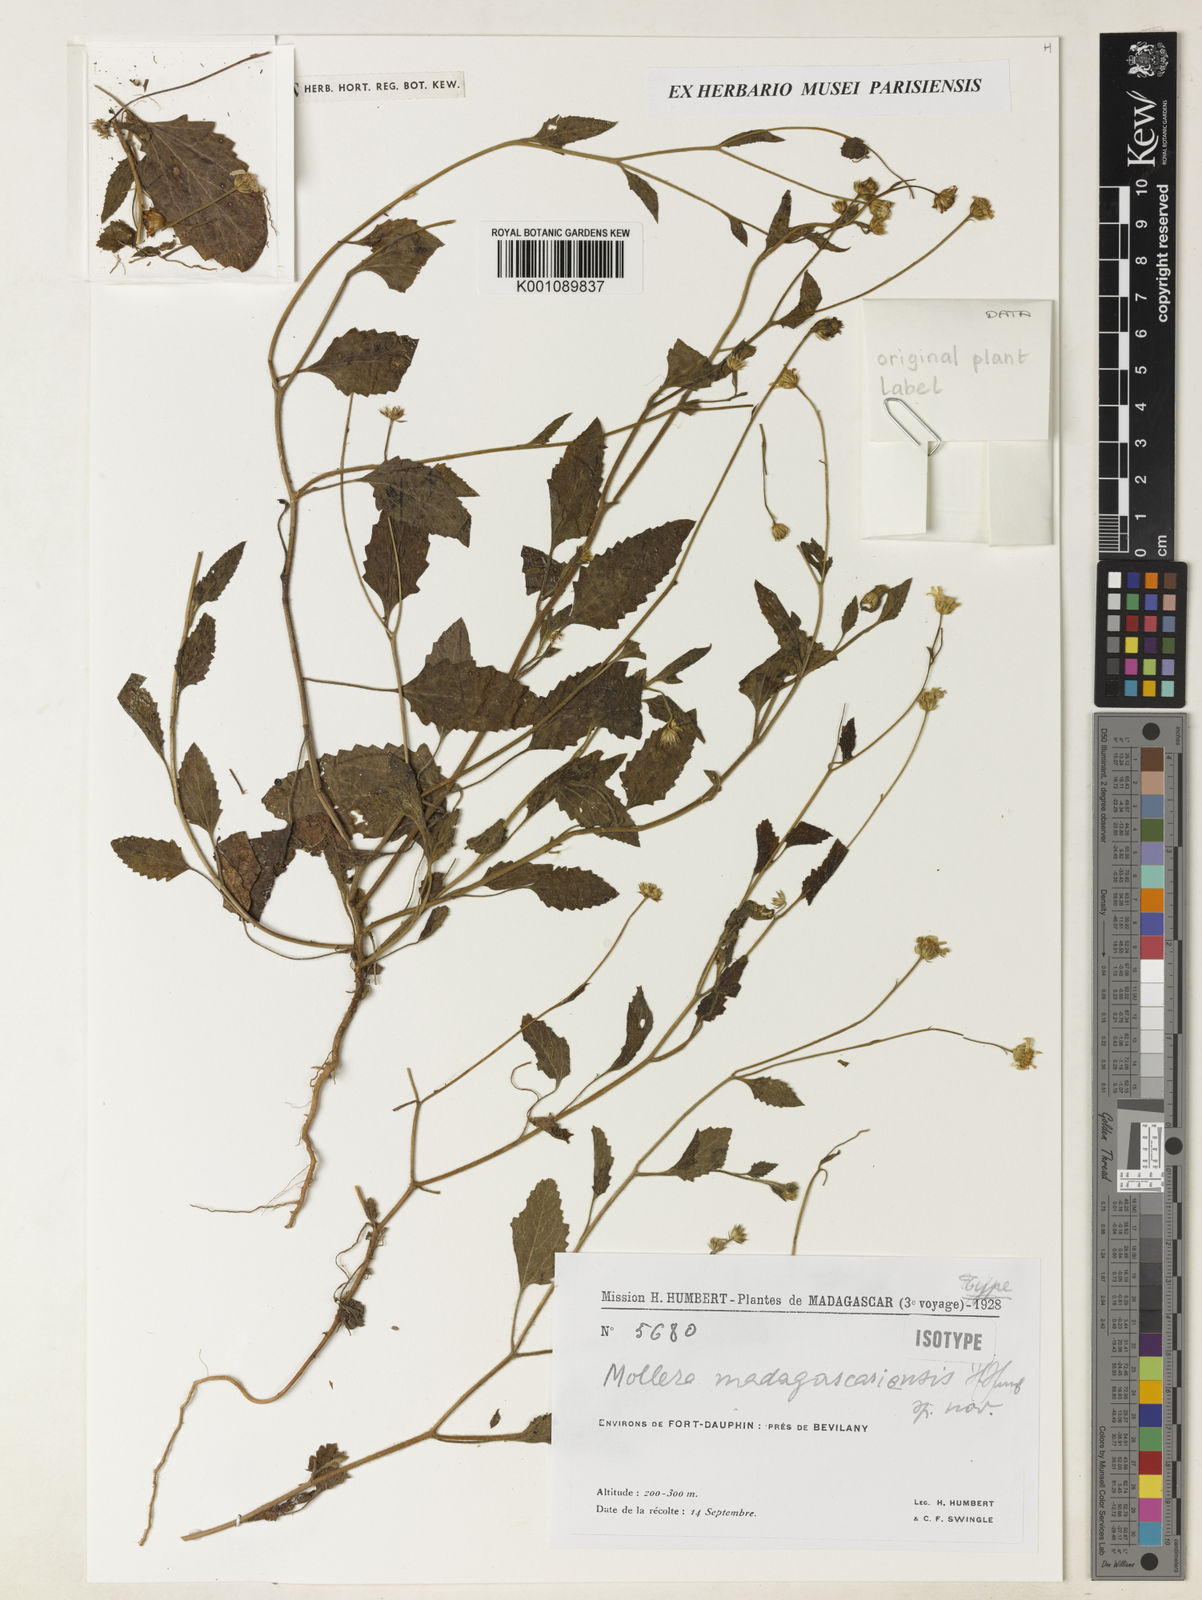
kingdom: Plantae
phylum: Tracheophyta
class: Magnoliopsida
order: Asterales
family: Asteraceae
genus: Calostephane
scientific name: Calostephane madagascariensis
